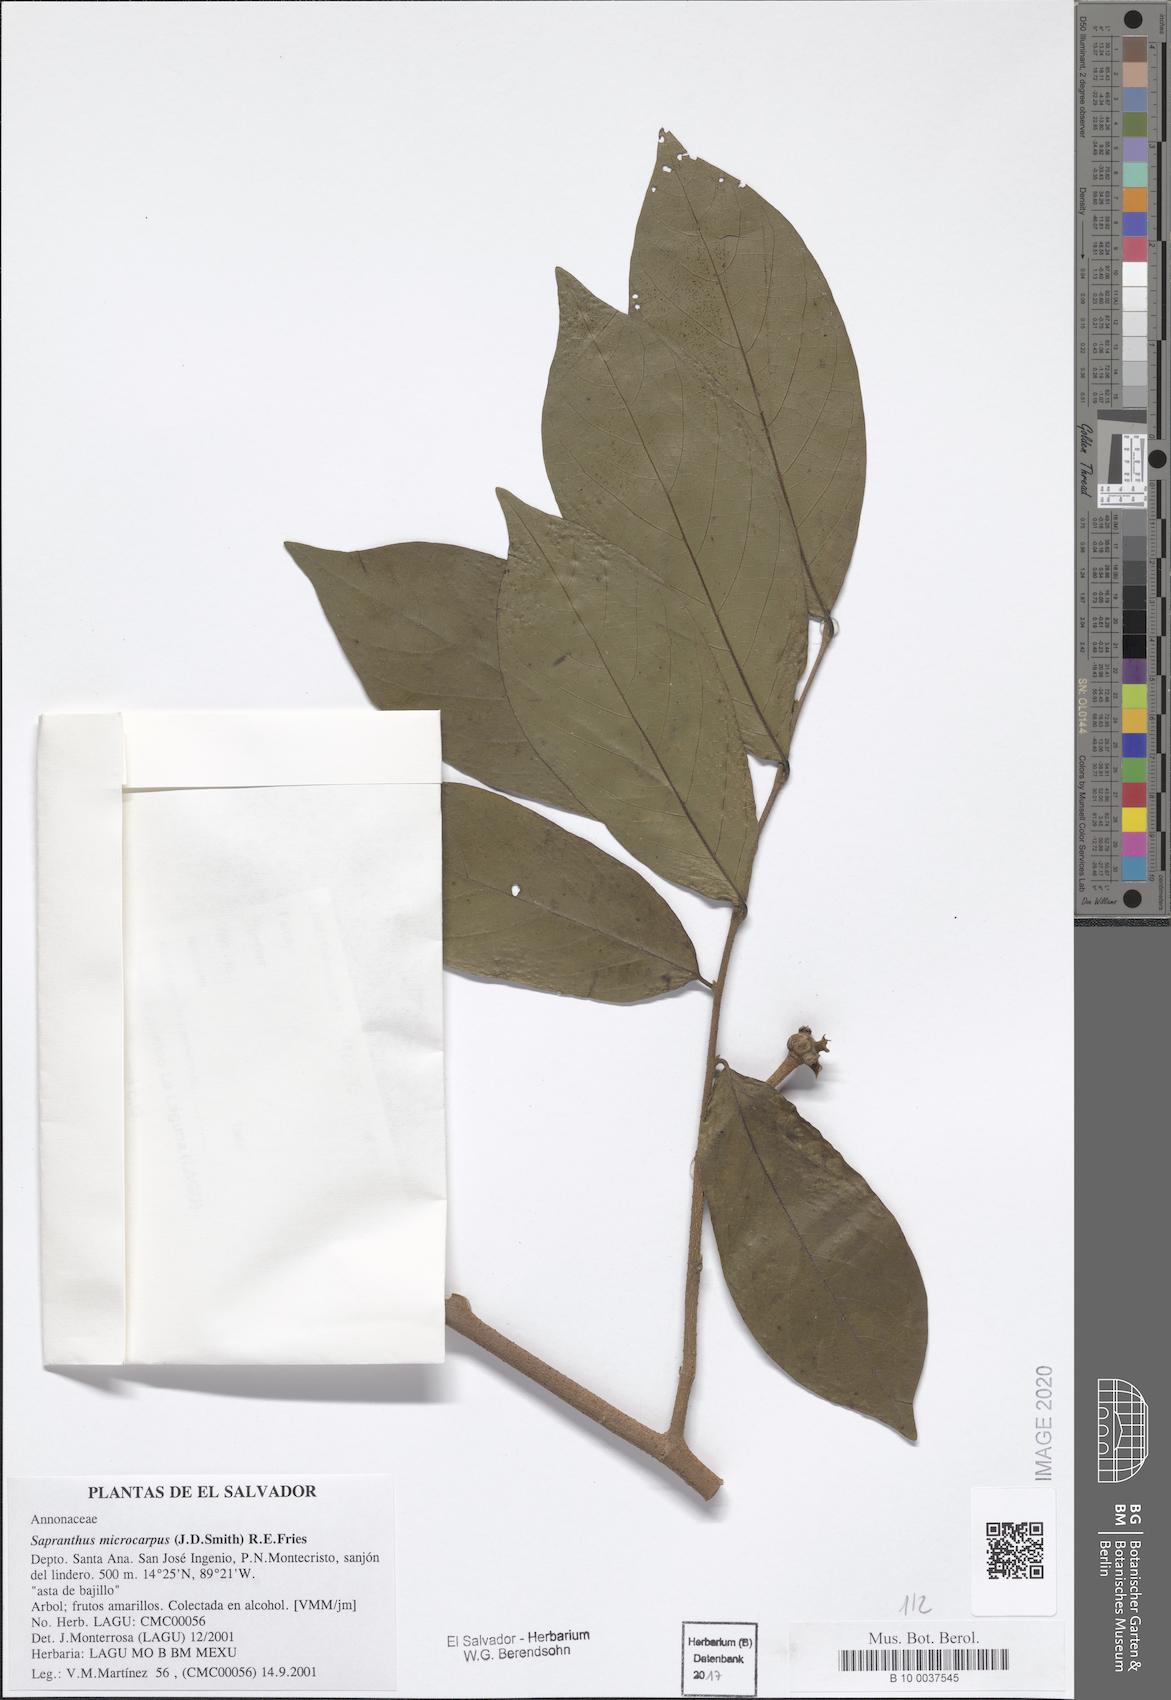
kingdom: Plantae
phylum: Tracheophyta
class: Magnoliopsida
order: Magnoliales
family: Annonaceae
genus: Sapranthus
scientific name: Sapranthus microcarpus
